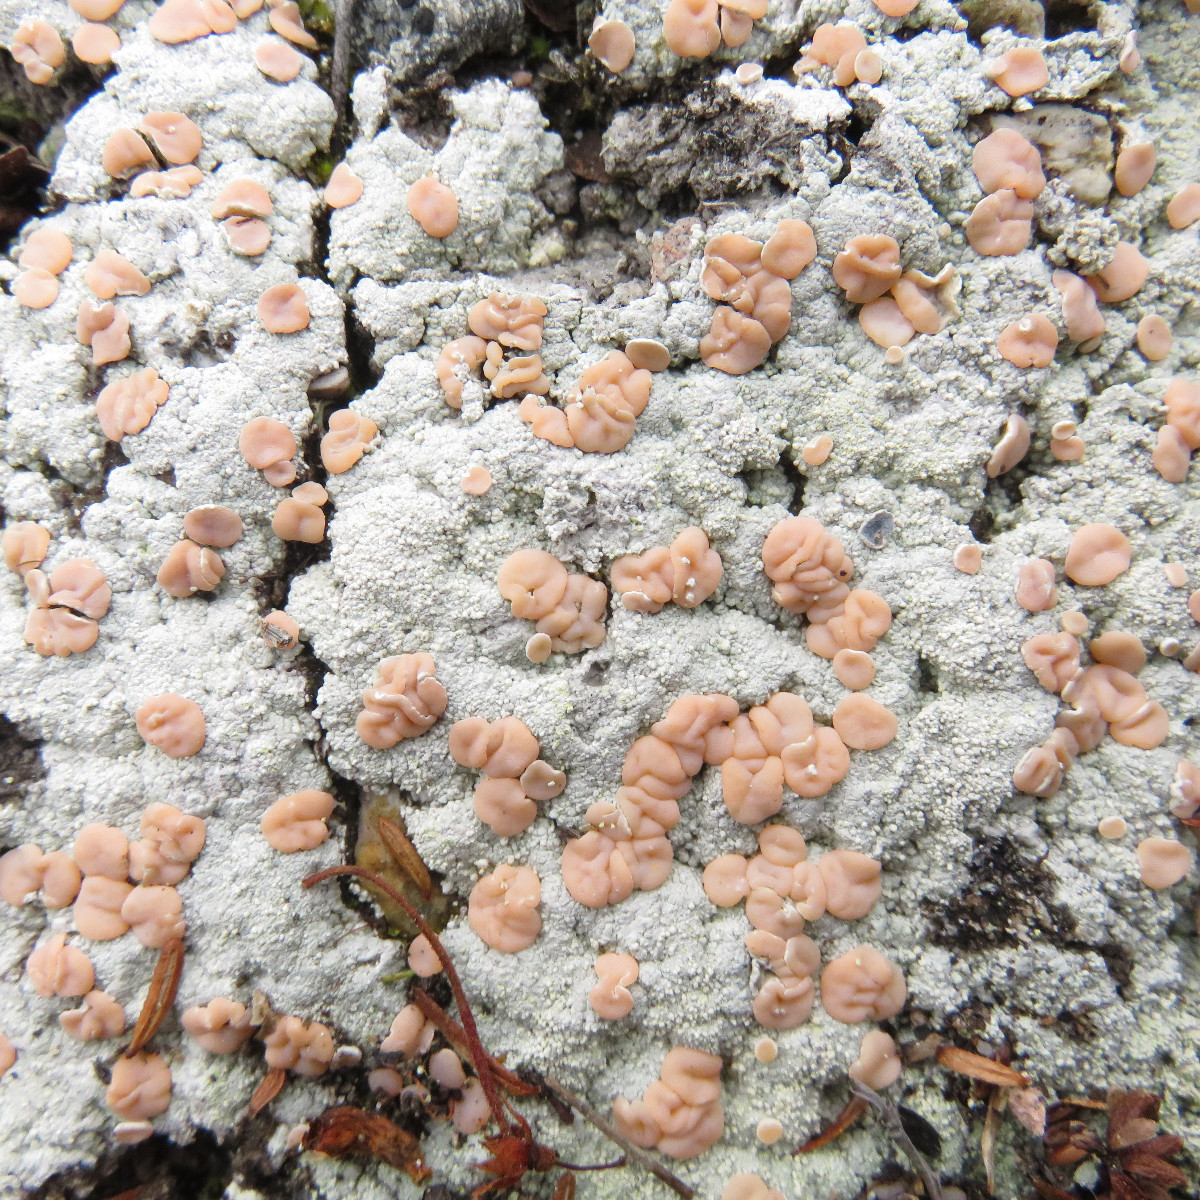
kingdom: Fungi
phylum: Ascomycota
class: Lecanoromycetes
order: Pertusariales
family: Icmadophilaceae
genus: Icmadophila
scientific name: Icmadophila ericetorum
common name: blegrød tørvelav
